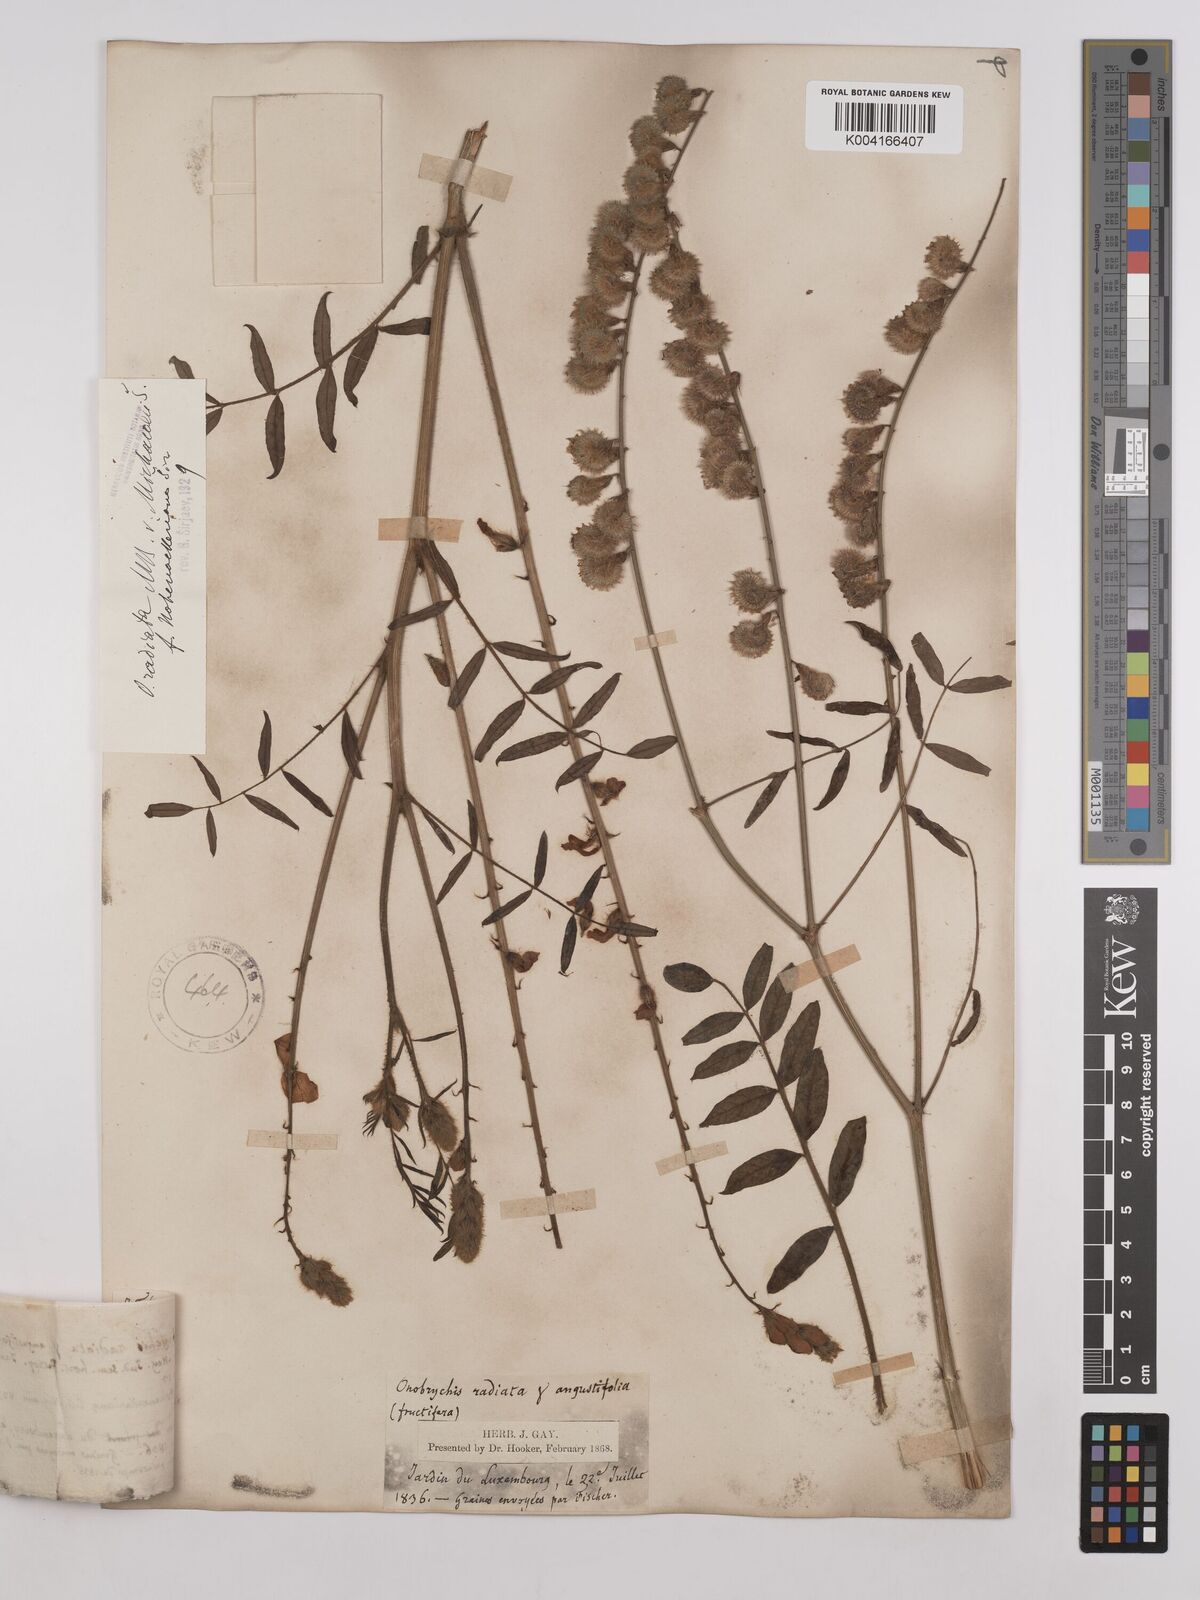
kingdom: Plantae
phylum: Tracheophyta
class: Magnoliopsida
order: Fabales
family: Fabaceae
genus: Onobrychis
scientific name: Onobrychis
